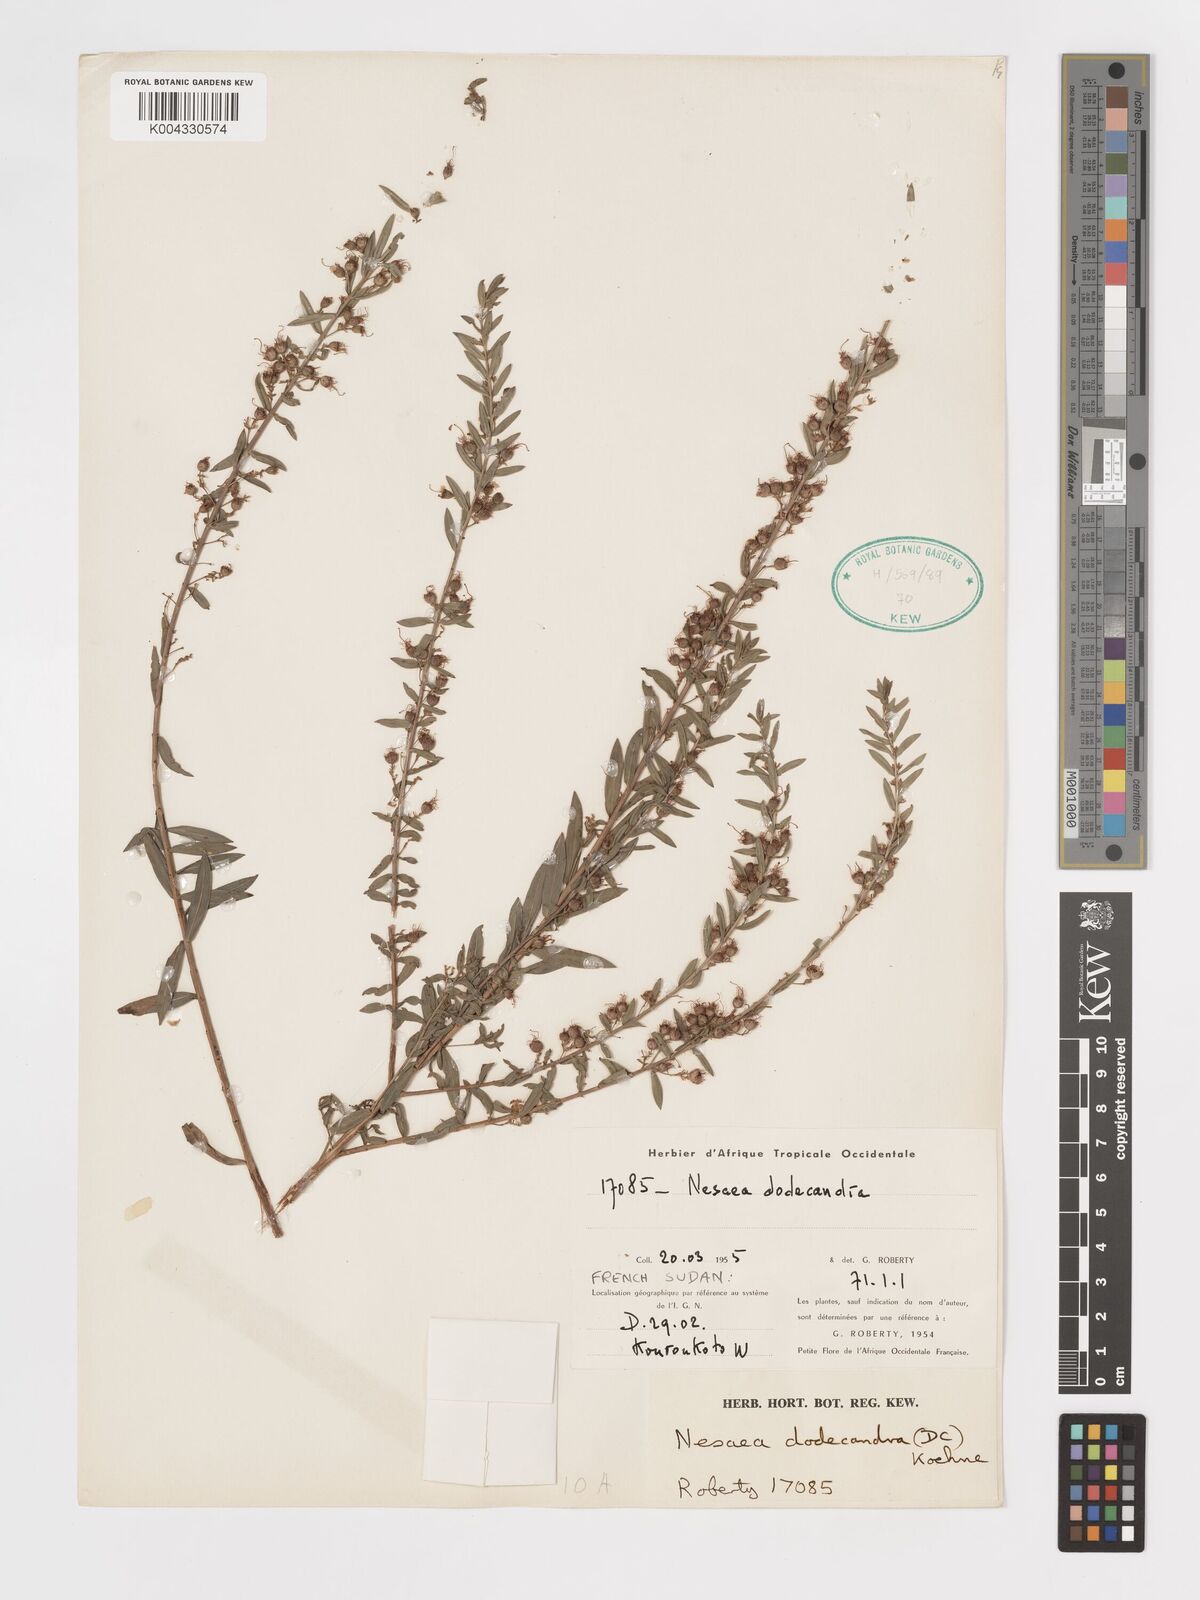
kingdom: Plantae
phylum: Tracheophyta
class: Magnoliopsida
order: Myrtales
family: Lythraceae
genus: Ammannia
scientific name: Ammannia dodecandra
